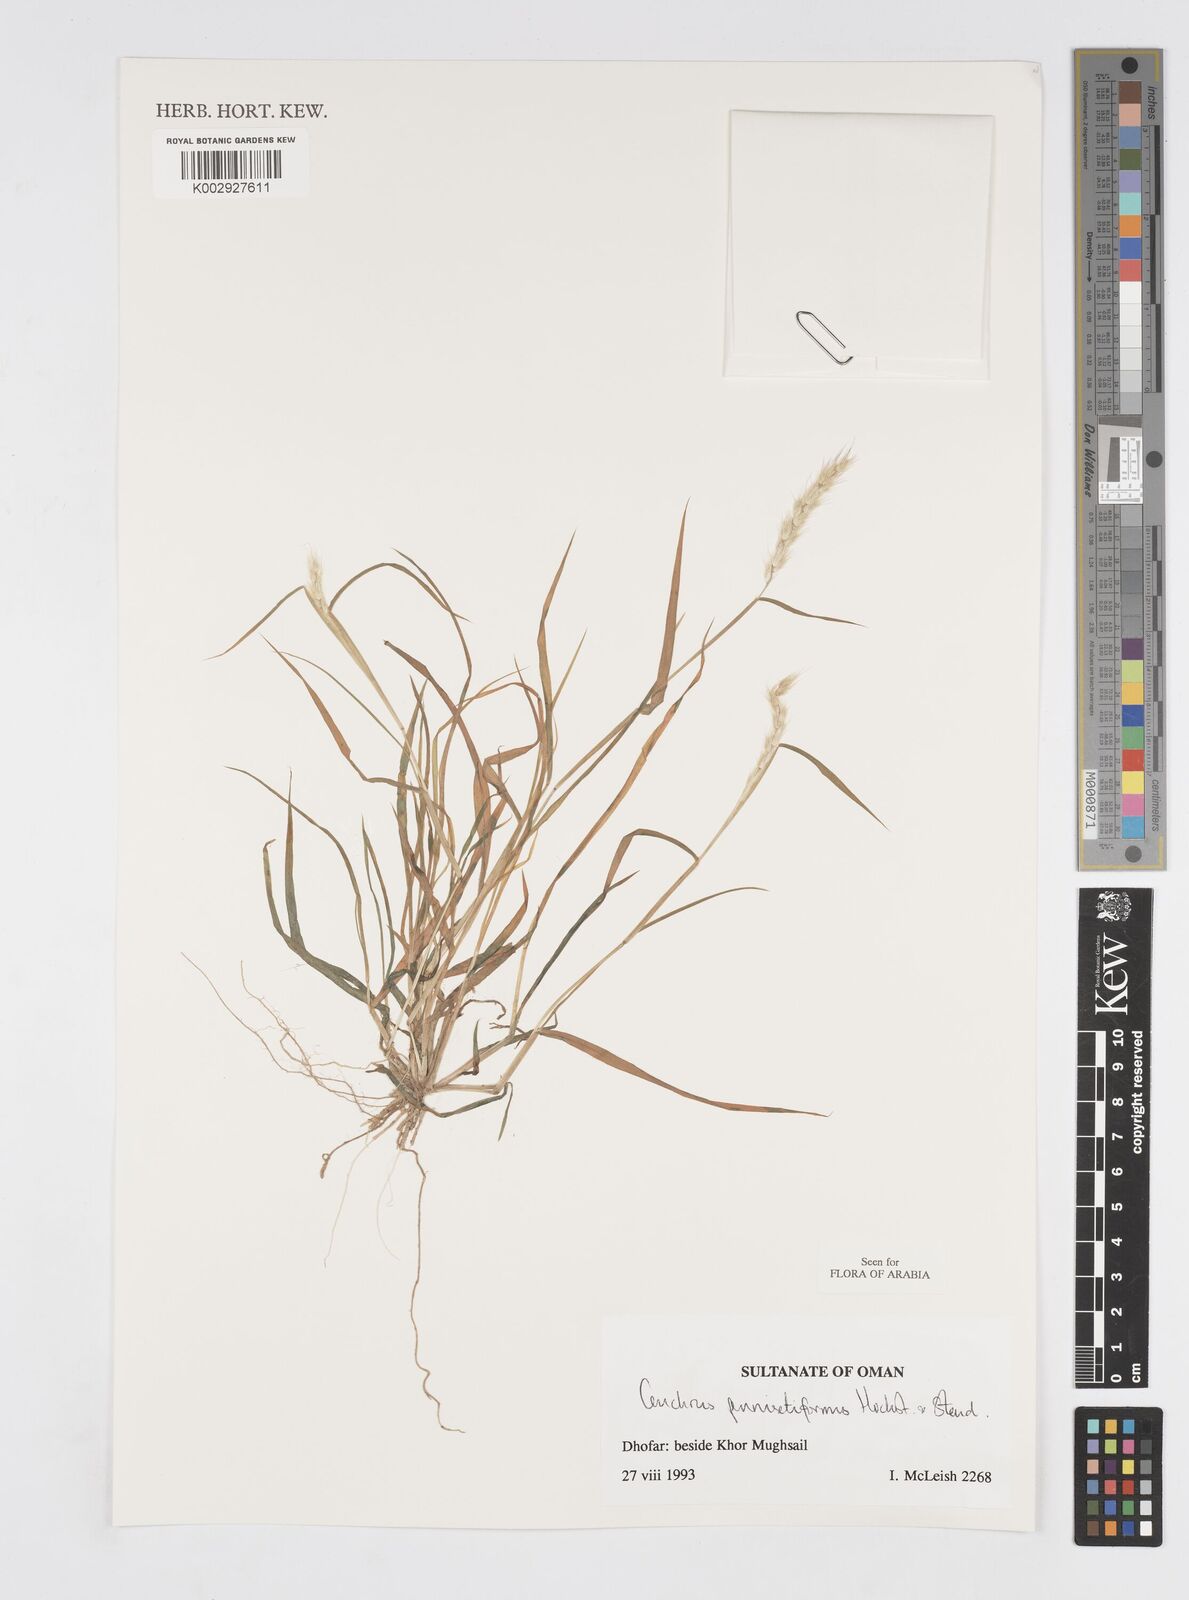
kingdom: Plantae
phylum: Tracheophyta
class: Liliopsida
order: Poales
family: Poaceae
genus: Cenchrus
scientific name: Cenchrus pennisetiformis
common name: Cloncurry
